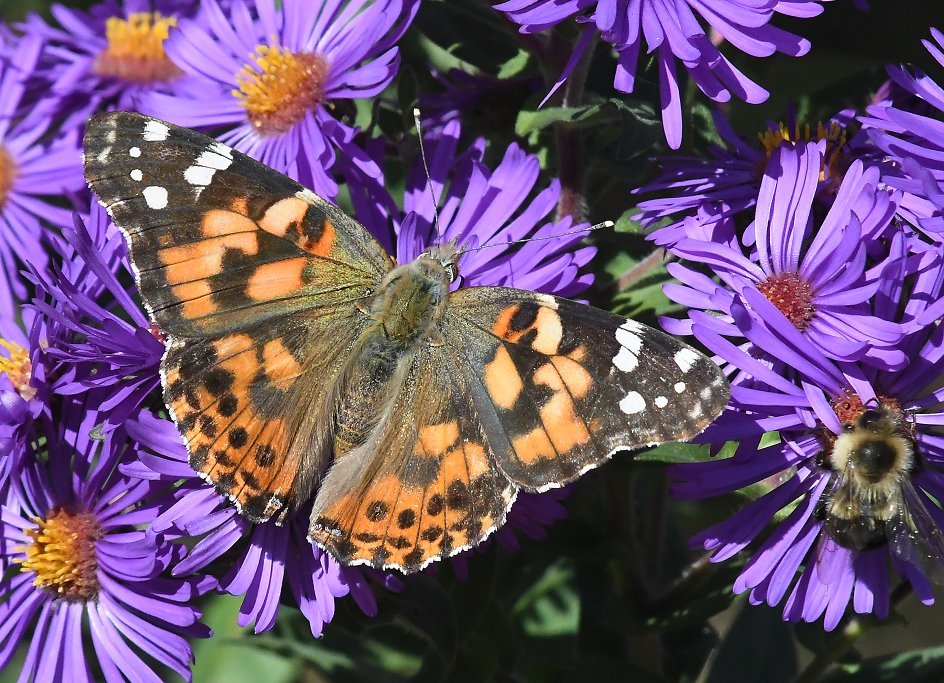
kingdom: Animalia
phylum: Arthropoda
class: Insecta
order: Lepidoptera
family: Nymphalidae
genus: Vanessa
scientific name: Vanessa cardui
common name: Painted Lady
